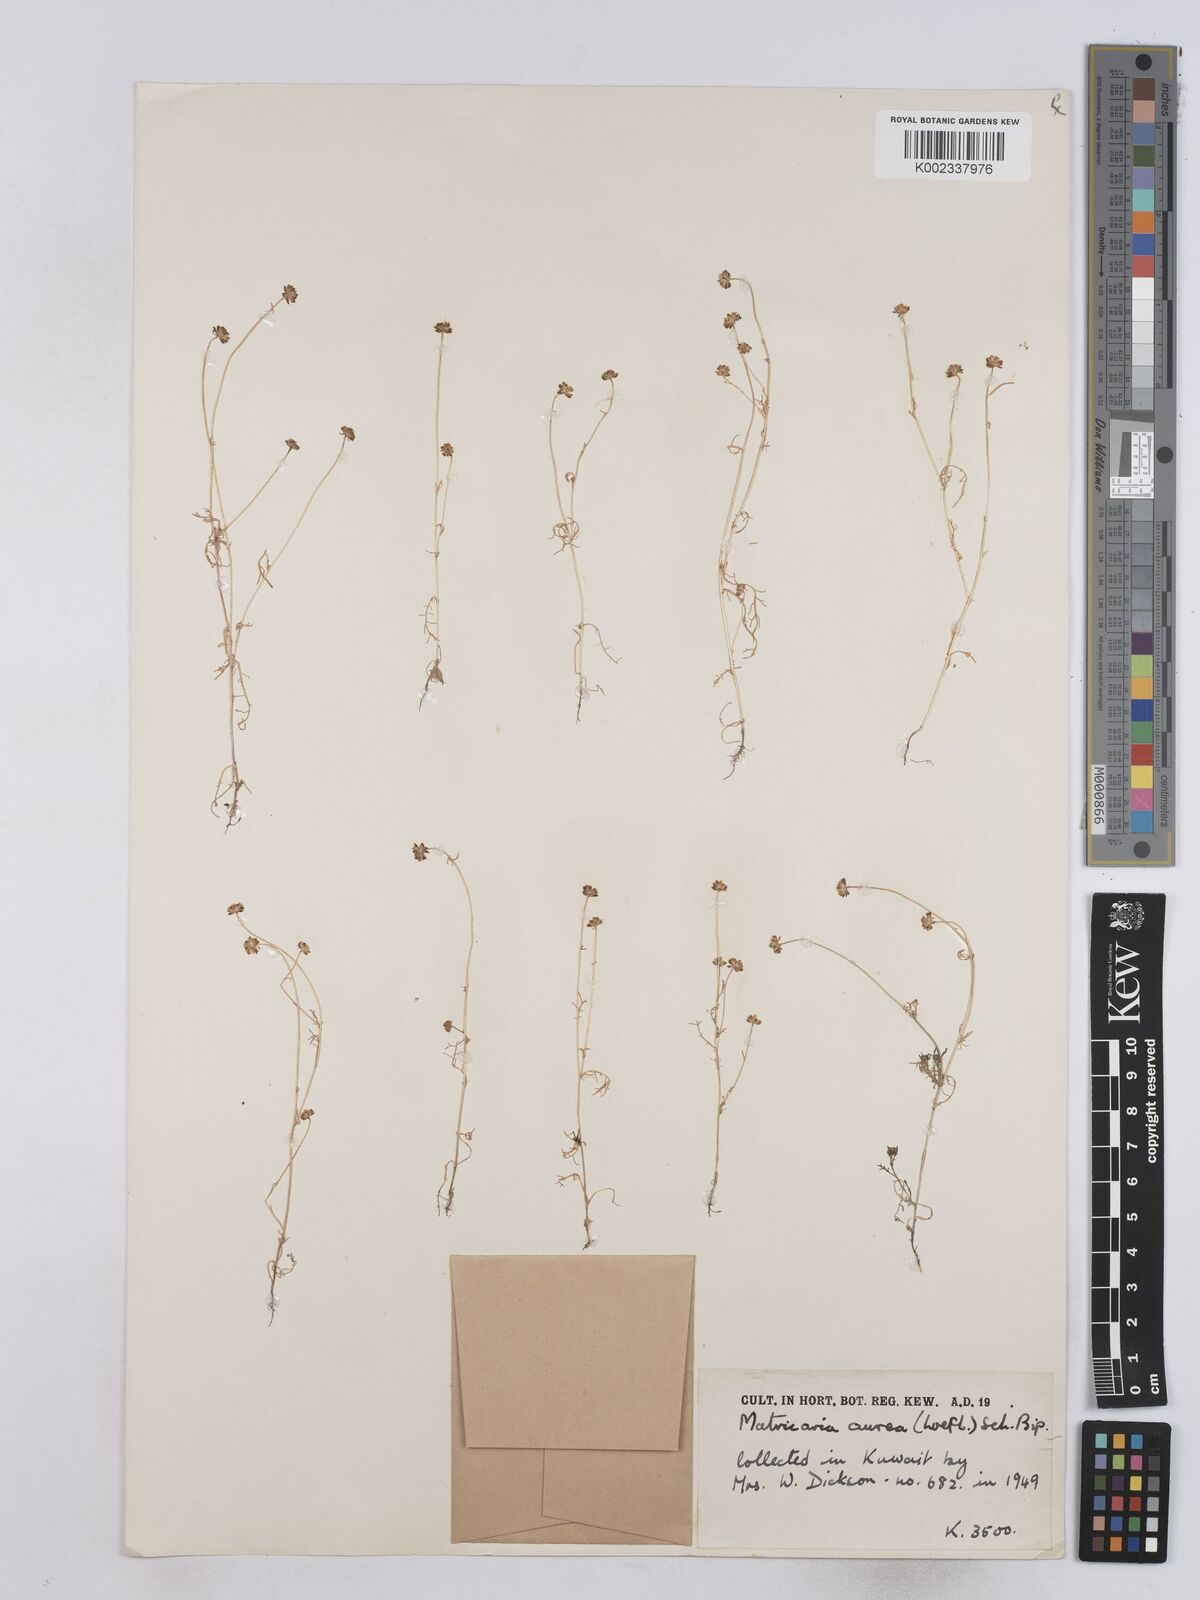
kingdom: Plantae
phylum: Tracheophyta
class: Magnoliopsida
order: Asterales
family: Asteraceae
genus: Matricaria
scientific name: Matricaria aurea
